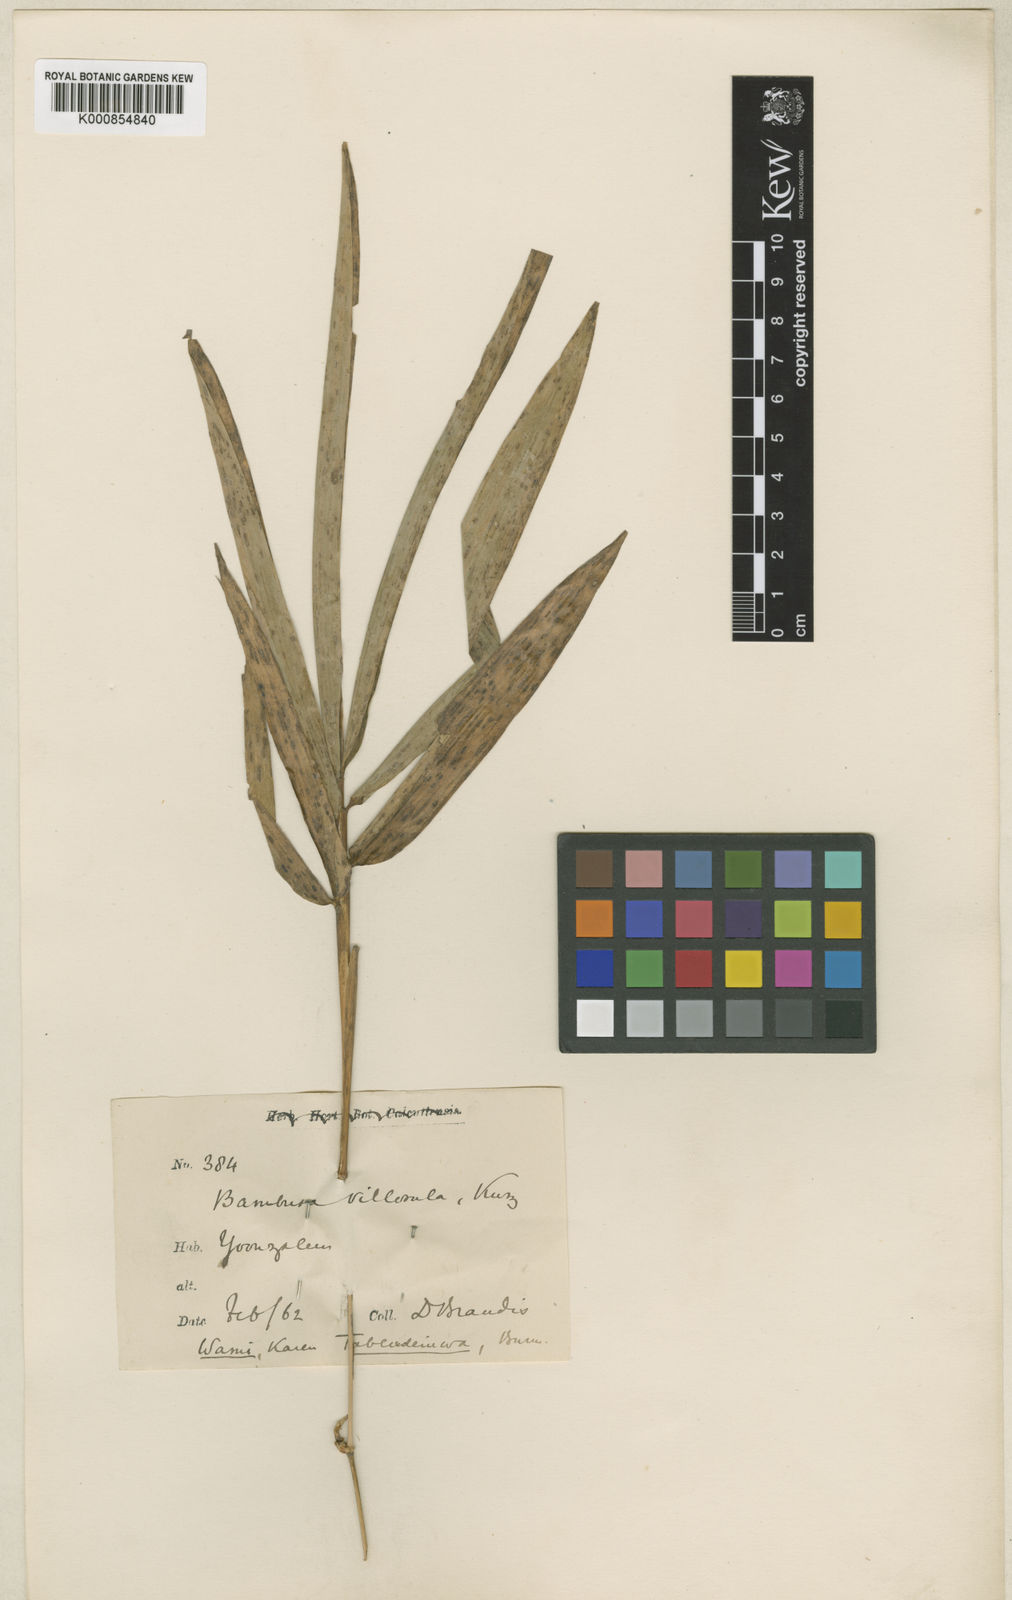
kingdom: Plantae
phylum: Tracheophyta
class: Liliopsida
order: Poales
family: Poaceae
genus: Bambusa
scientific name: Bambusa villosula
